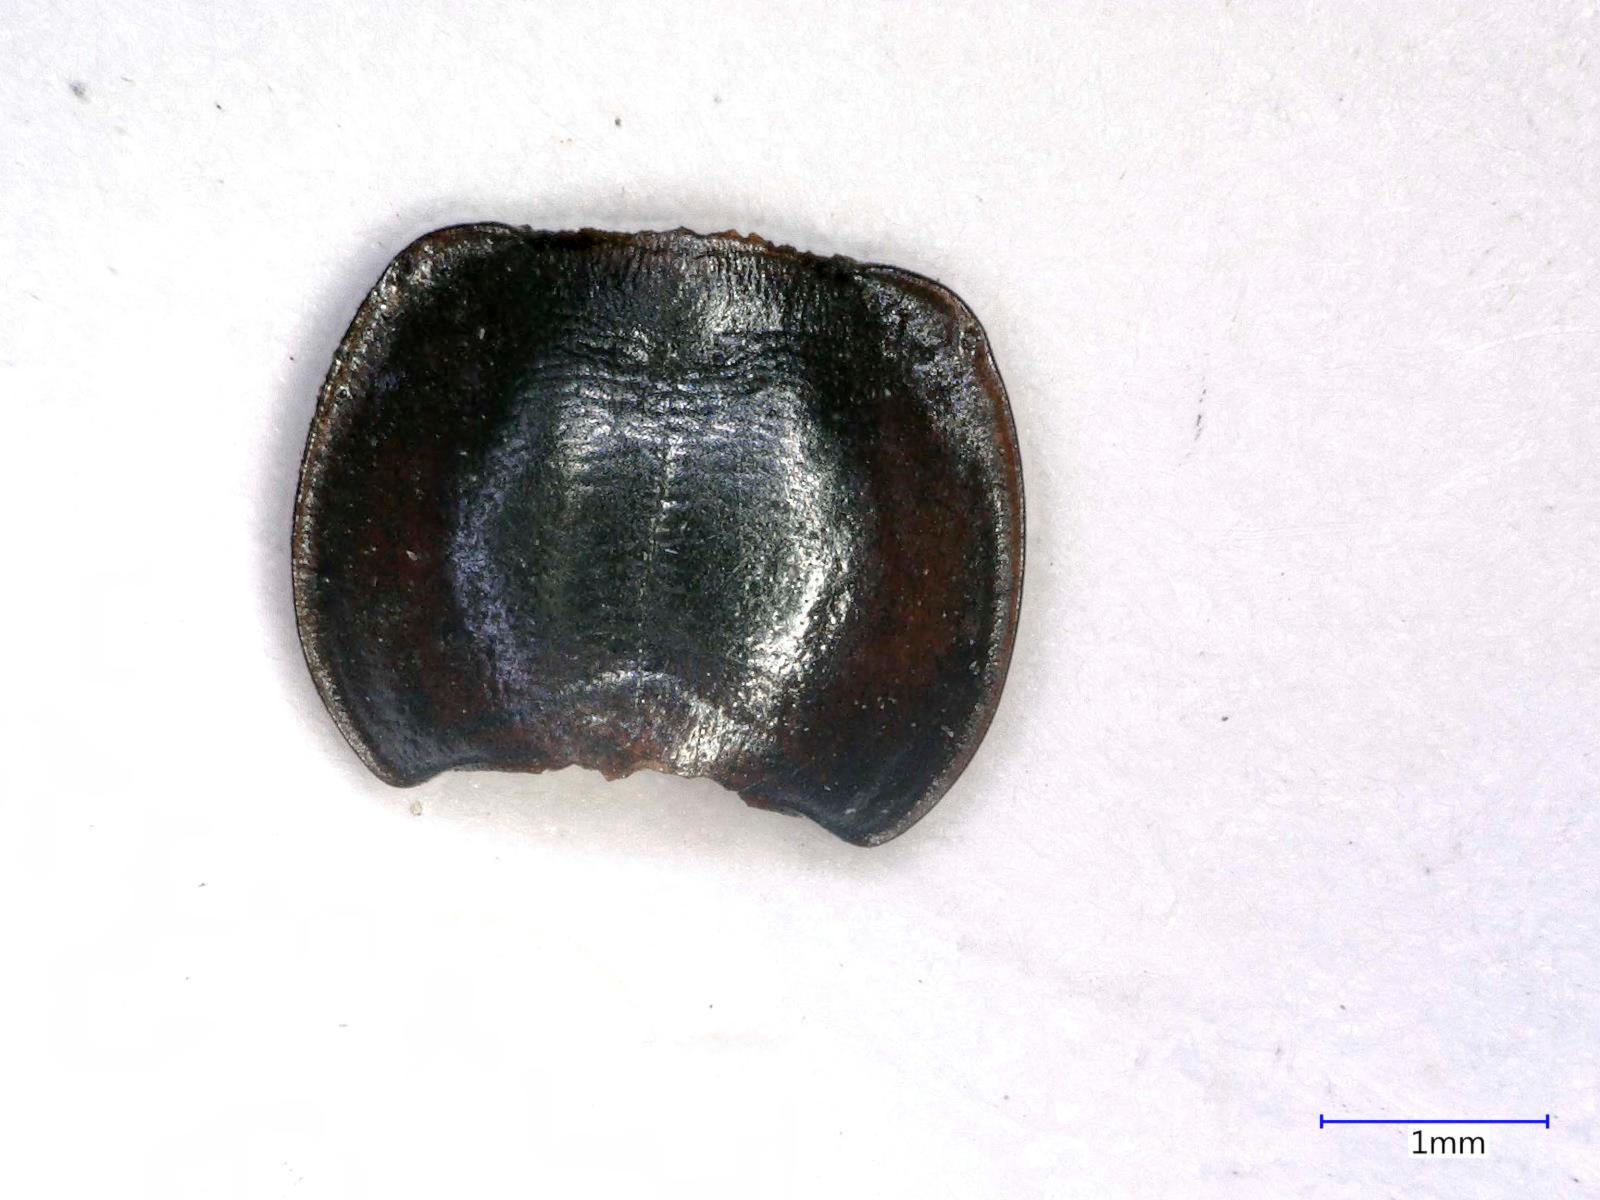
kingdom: Animalia
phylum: Arthropoda
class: Insecta
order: Coleoptera
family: Carabidae
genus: Tanystoma
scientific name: Tanystoma maculicolle
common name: Tule beetle
